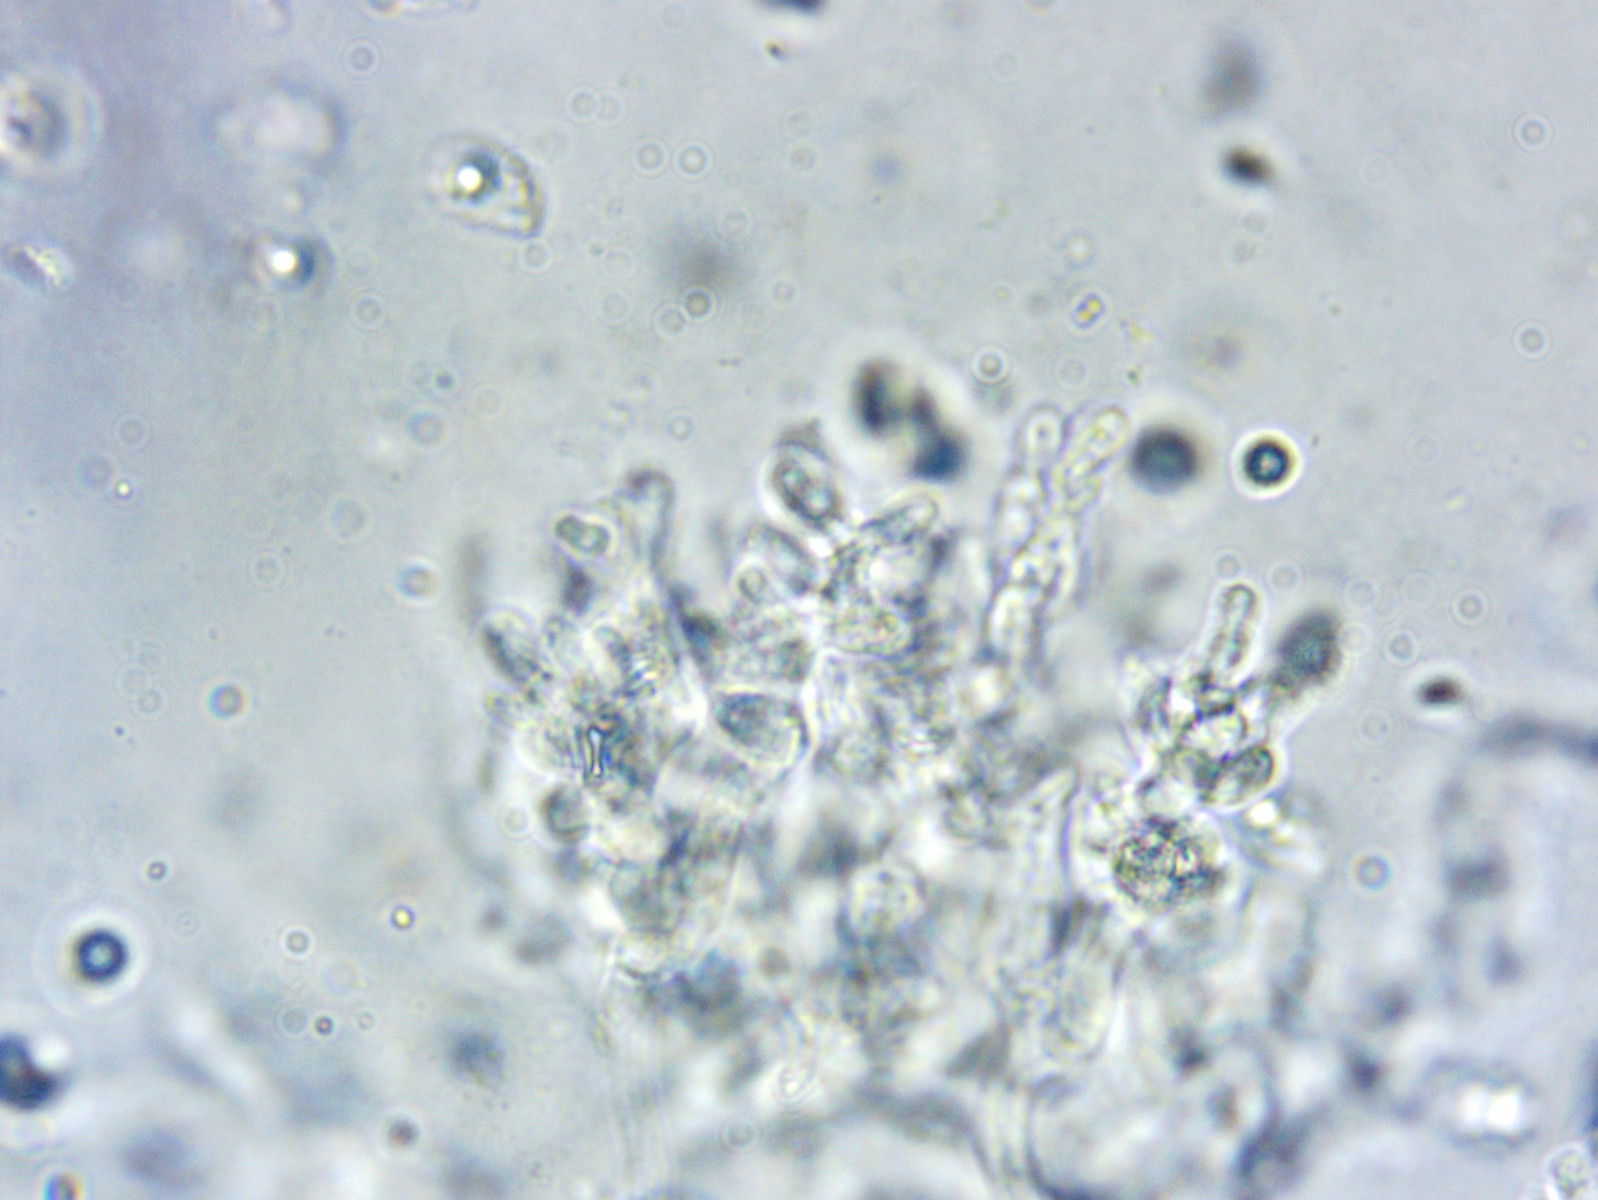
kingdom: Fungi
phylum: Basidiomycota
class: Agaricomycetes
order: Agaricales
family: Mycenaceae
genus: Mycena
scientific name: Mycena galericulata
